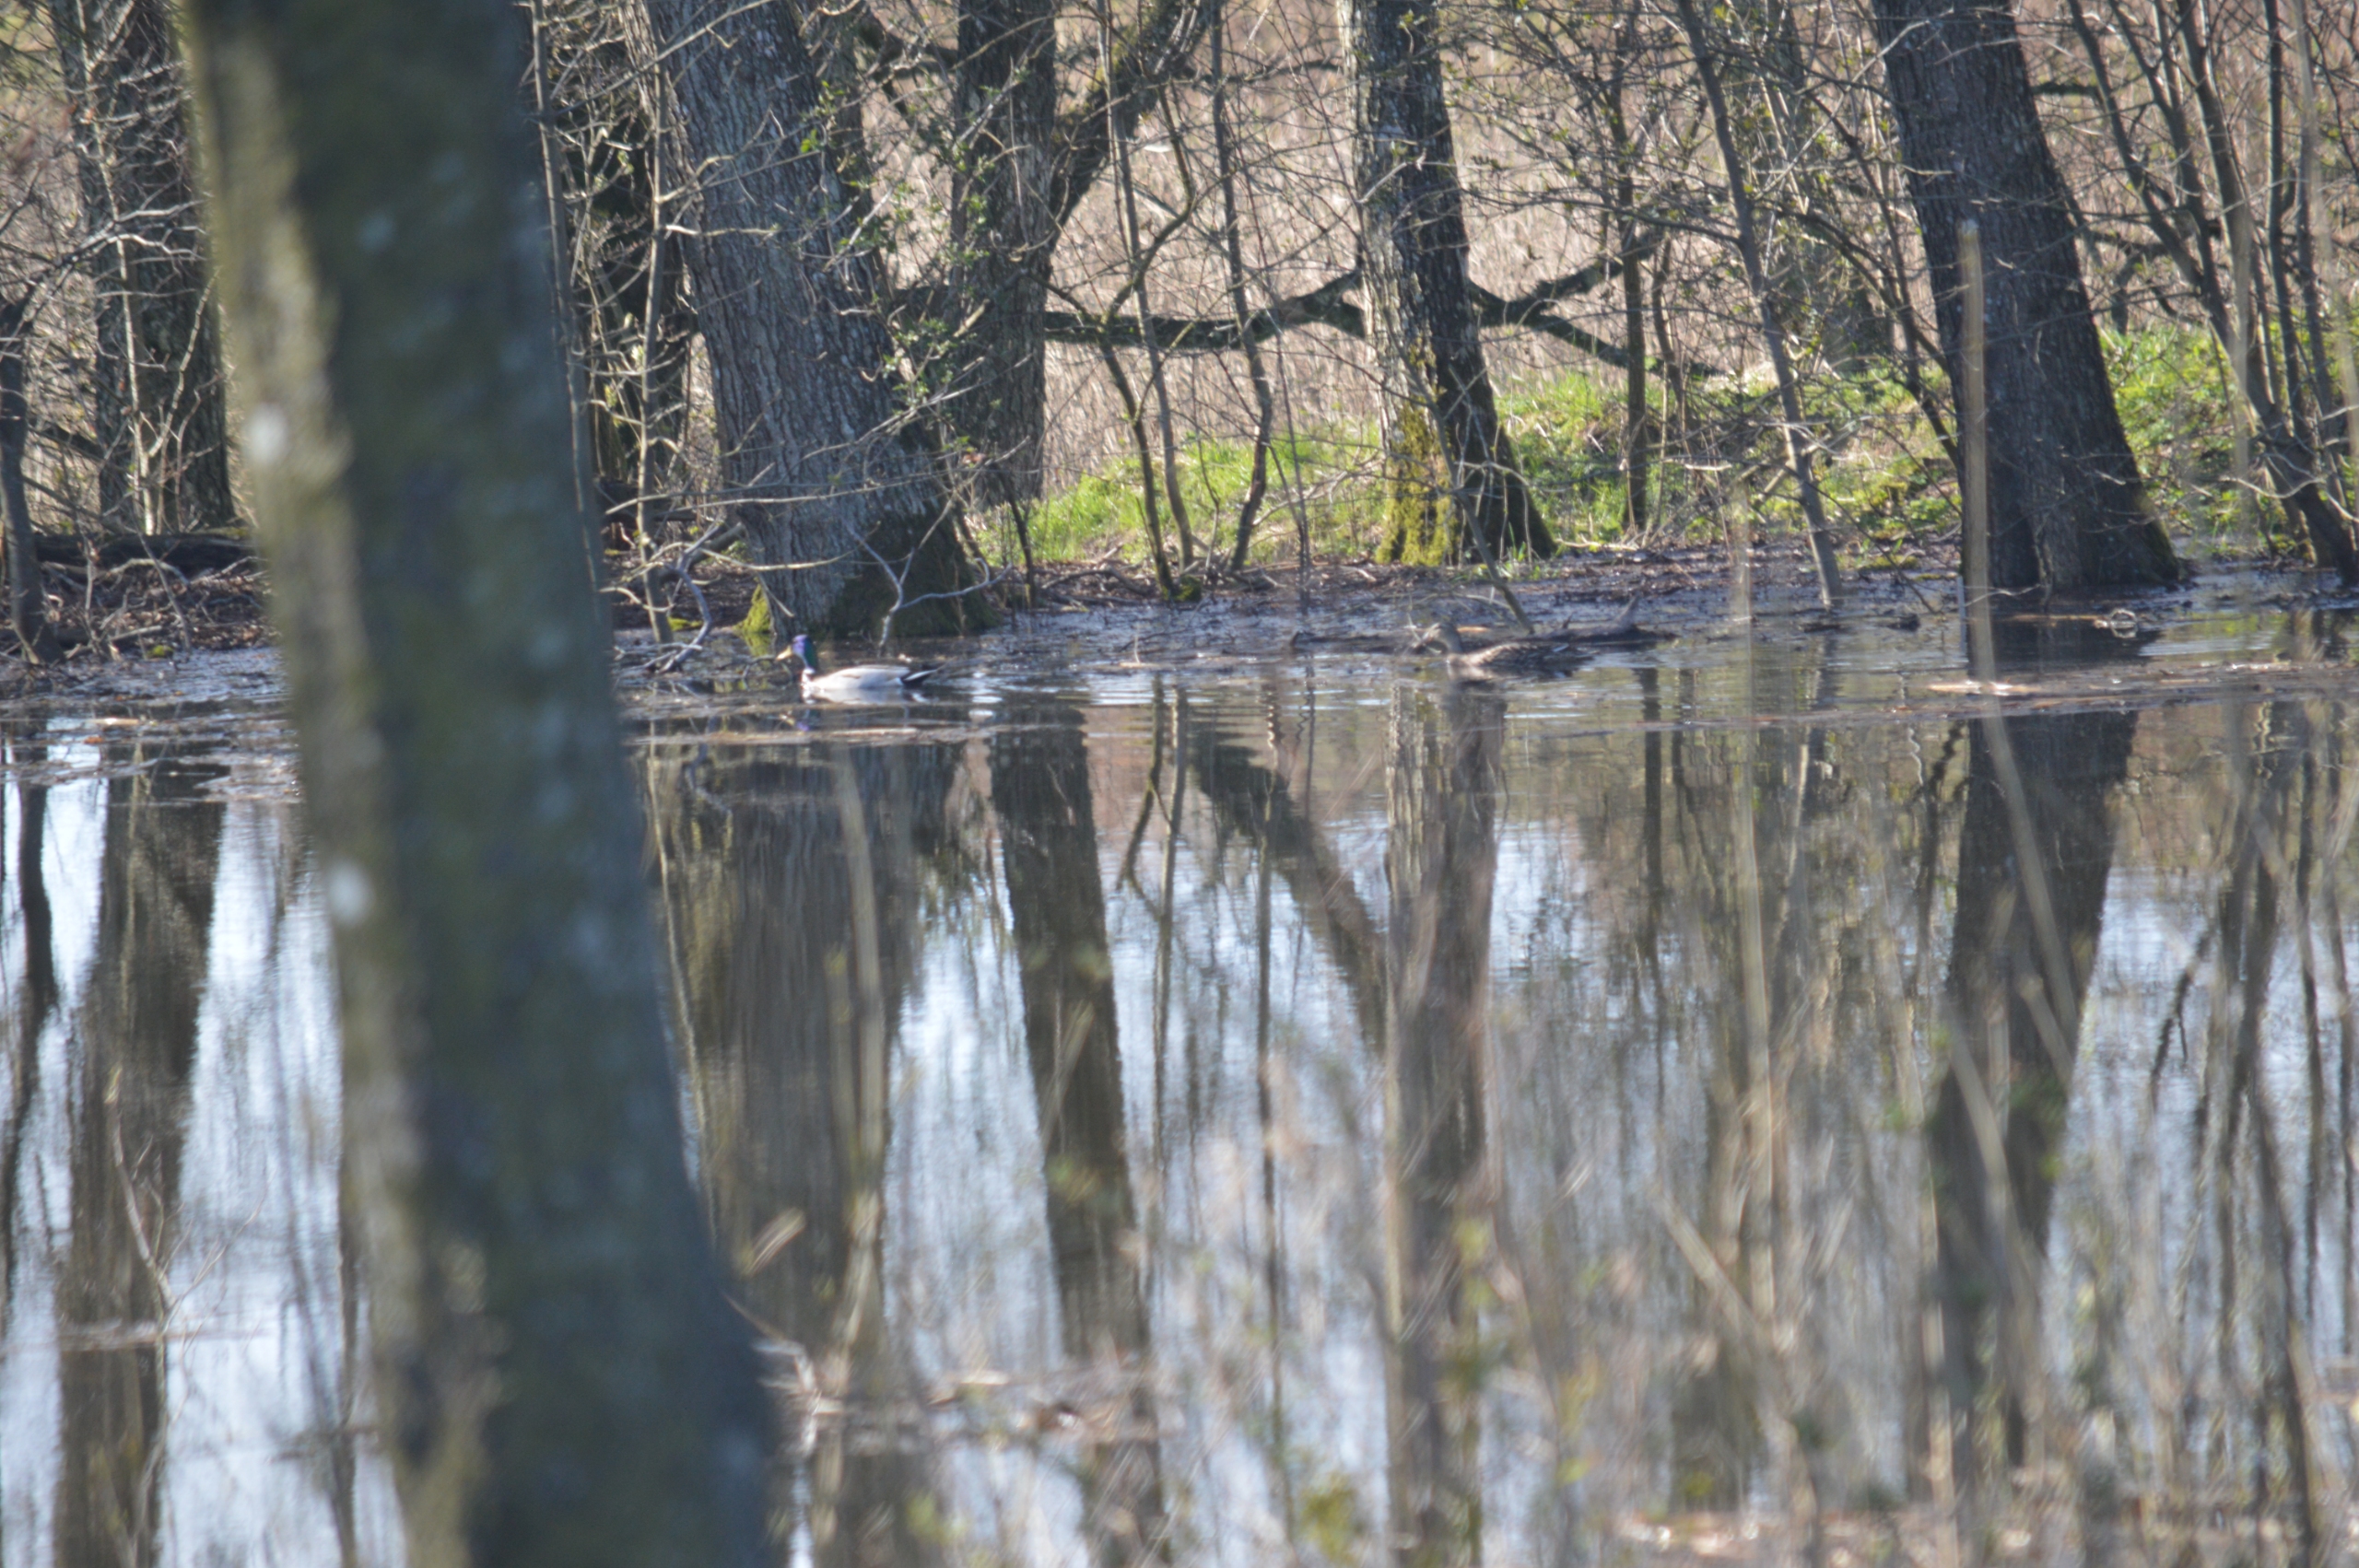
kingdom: Animalia
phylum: Chordata
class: Aves
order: Anseriformes
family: Anatidae
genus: Anas
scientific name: Anas platyrhynchos
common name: Gråand
